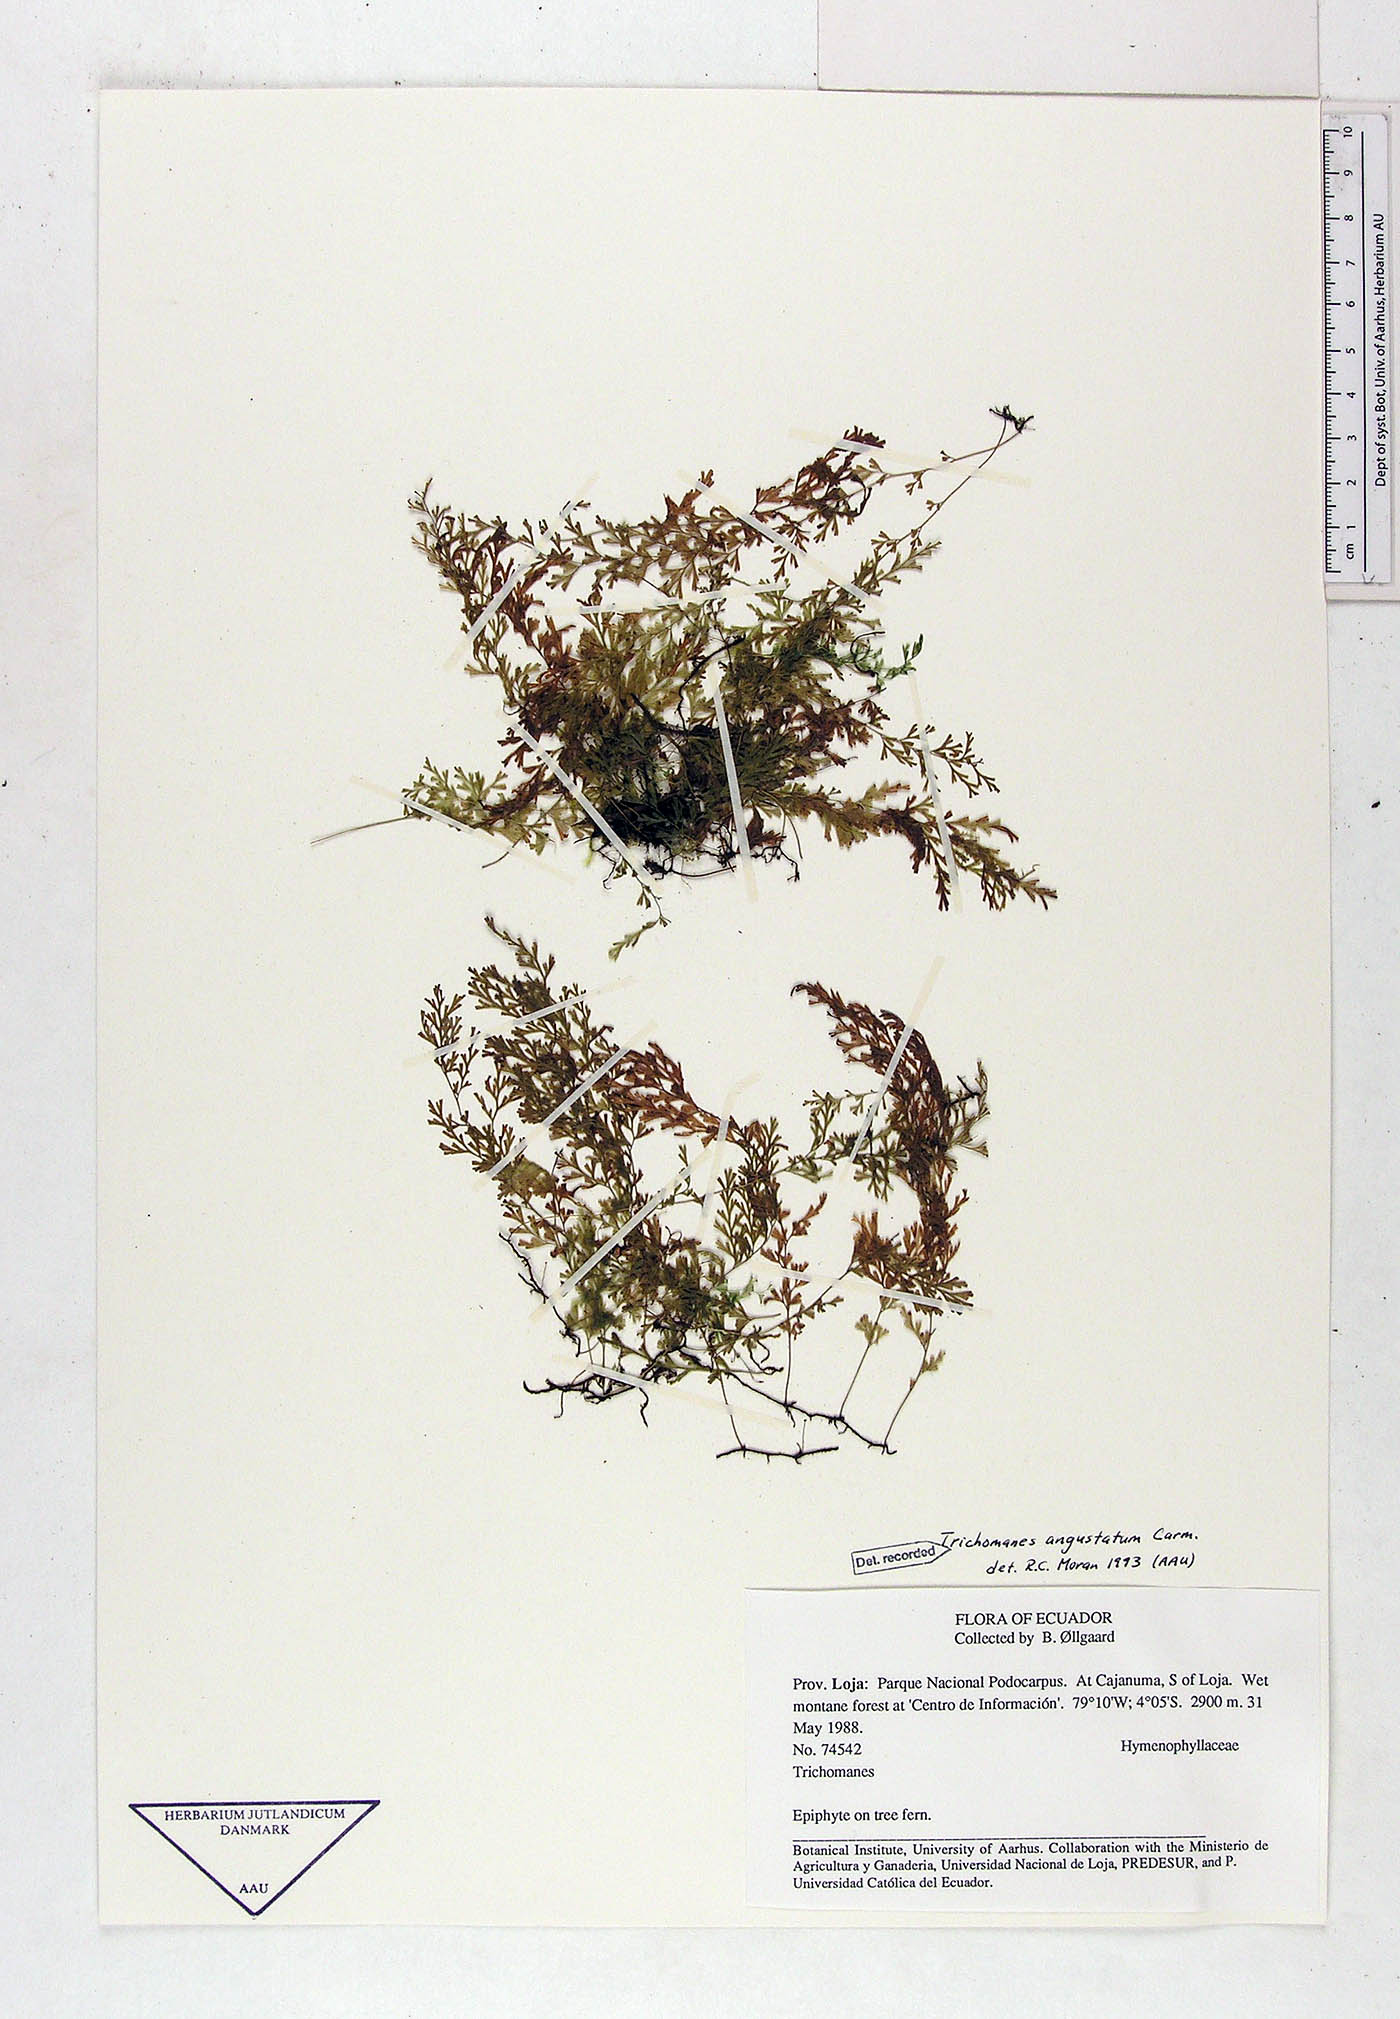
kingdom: Plantae
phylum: Tracheophyta
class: Polypodiopsida
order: Hymenophyllales
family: Hymenophyllaceae
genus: Polyphlebium
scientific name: Polyphlebium angustatum
